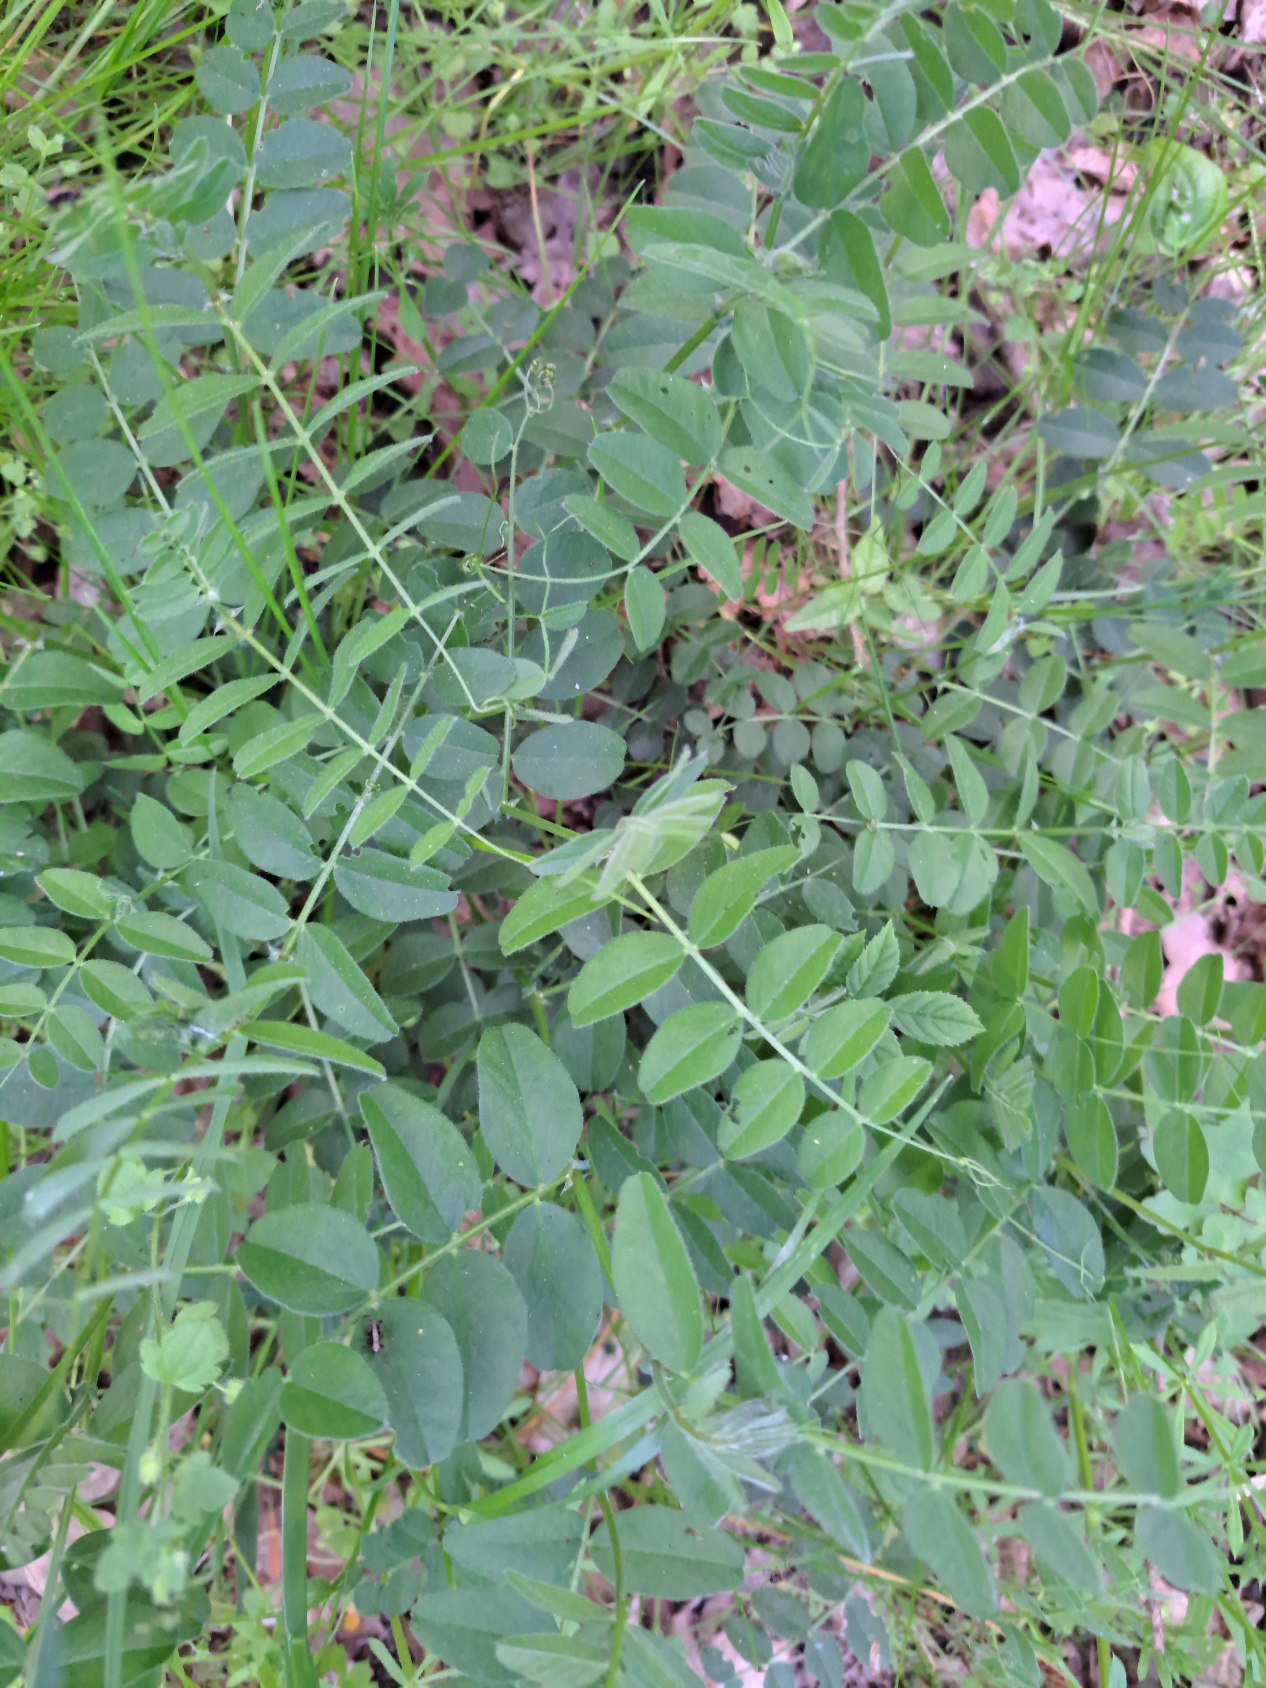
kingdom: Plantae
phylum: Tracheophyta
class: Magnoliopsida
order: Fabales
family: Fabaceae
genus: Vicia
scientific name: Vicia sepium
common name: Gærde-vikke
